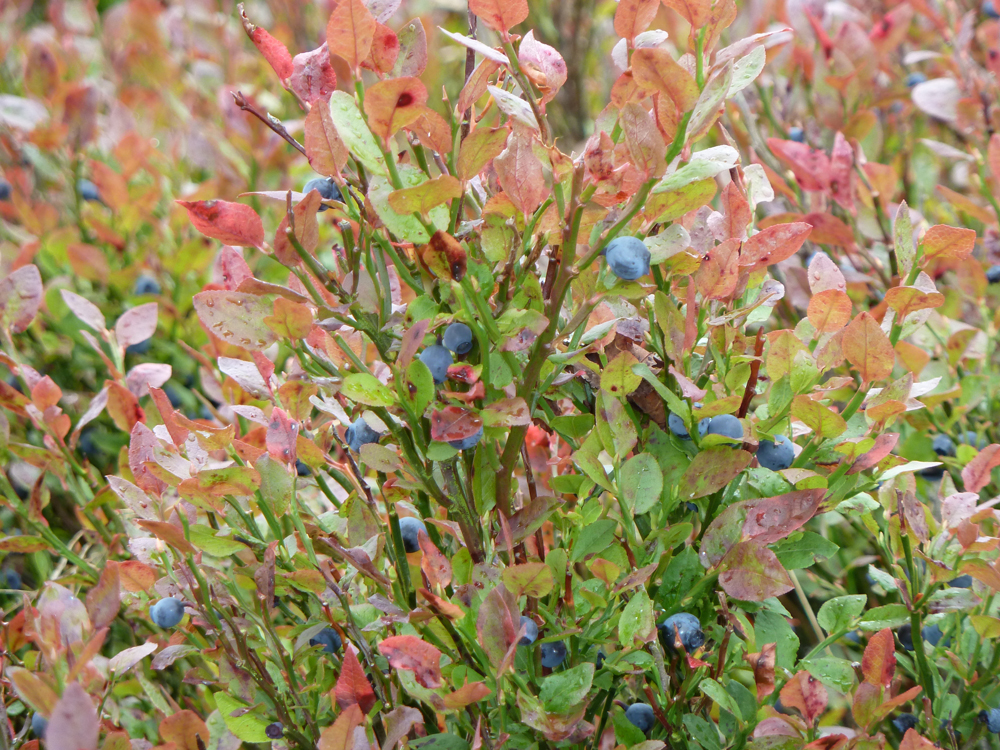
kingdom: Plantae
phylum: Tracheophyta
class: Magnoliopsida
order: Ericales
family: Ericaceae
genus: Vaccinium
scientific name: Vaccinium myrtillus
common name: Bilberry
